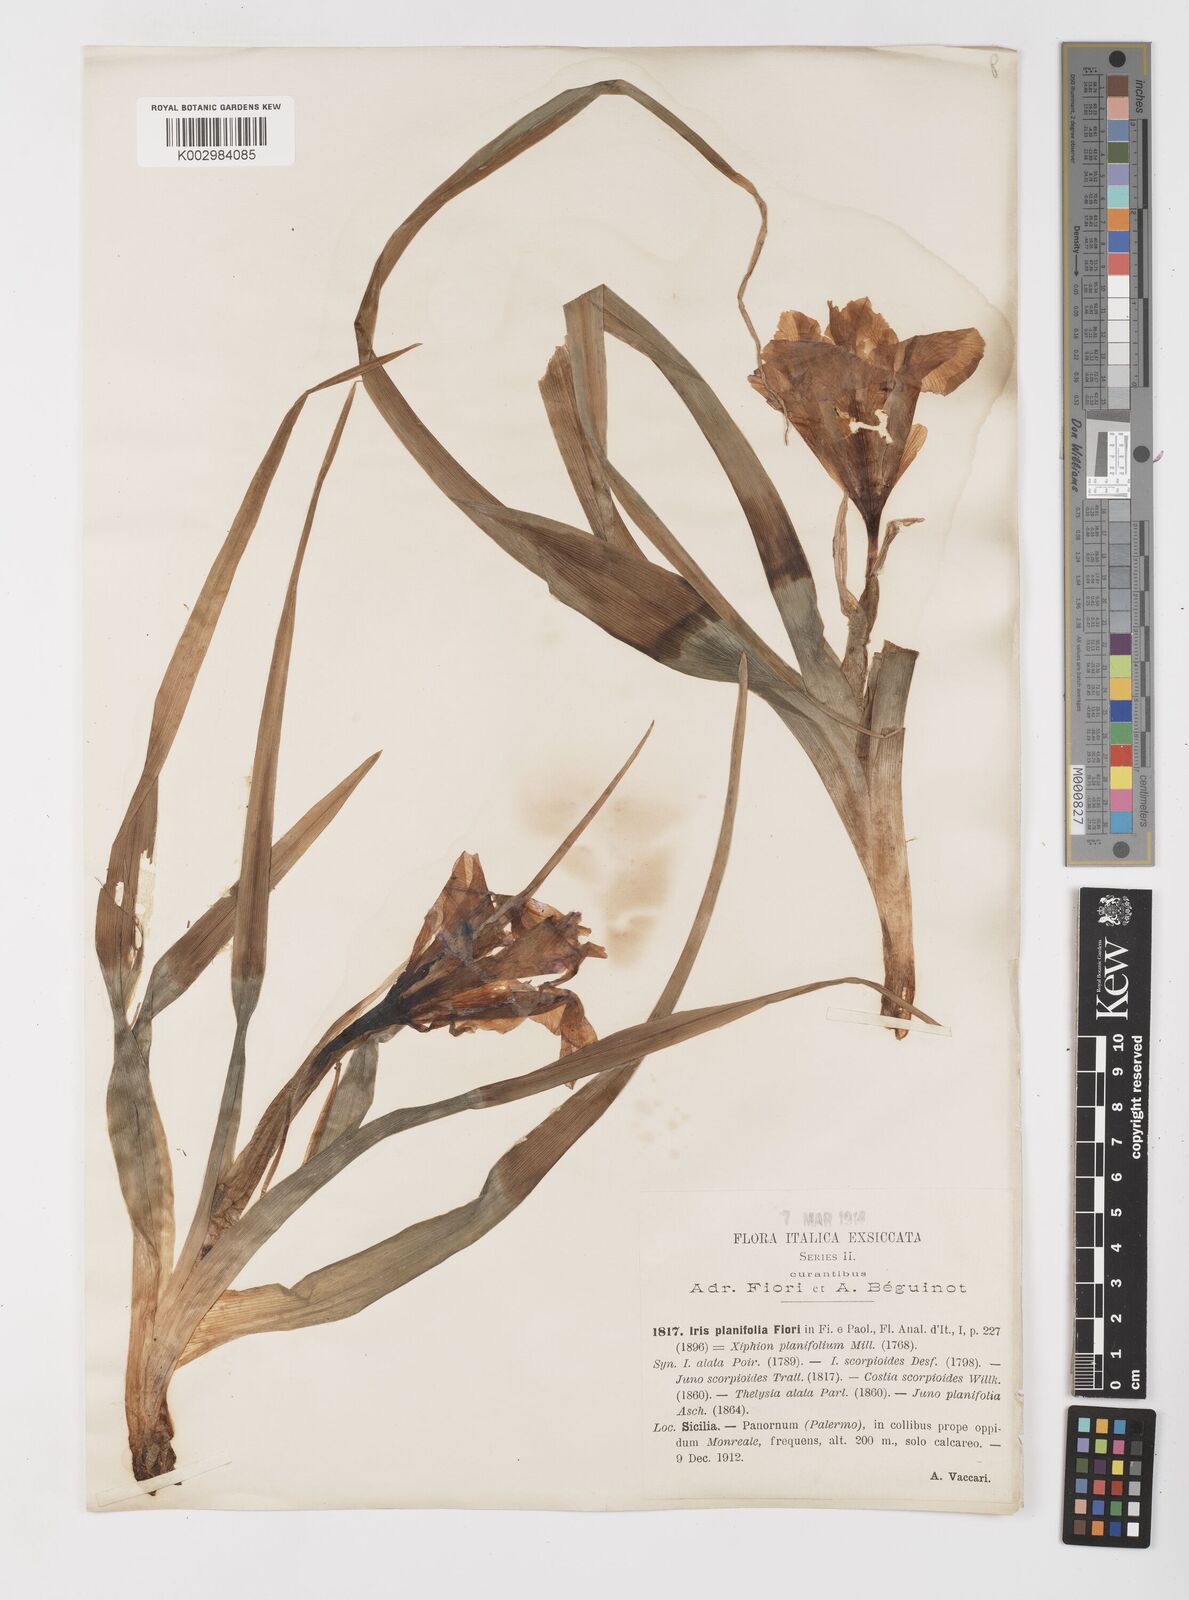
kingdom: Plantae
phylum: Tracheophyta
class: Liliopsida
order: Asparagales
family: Iridaceae
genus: Iris
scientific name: Iris planifolia
